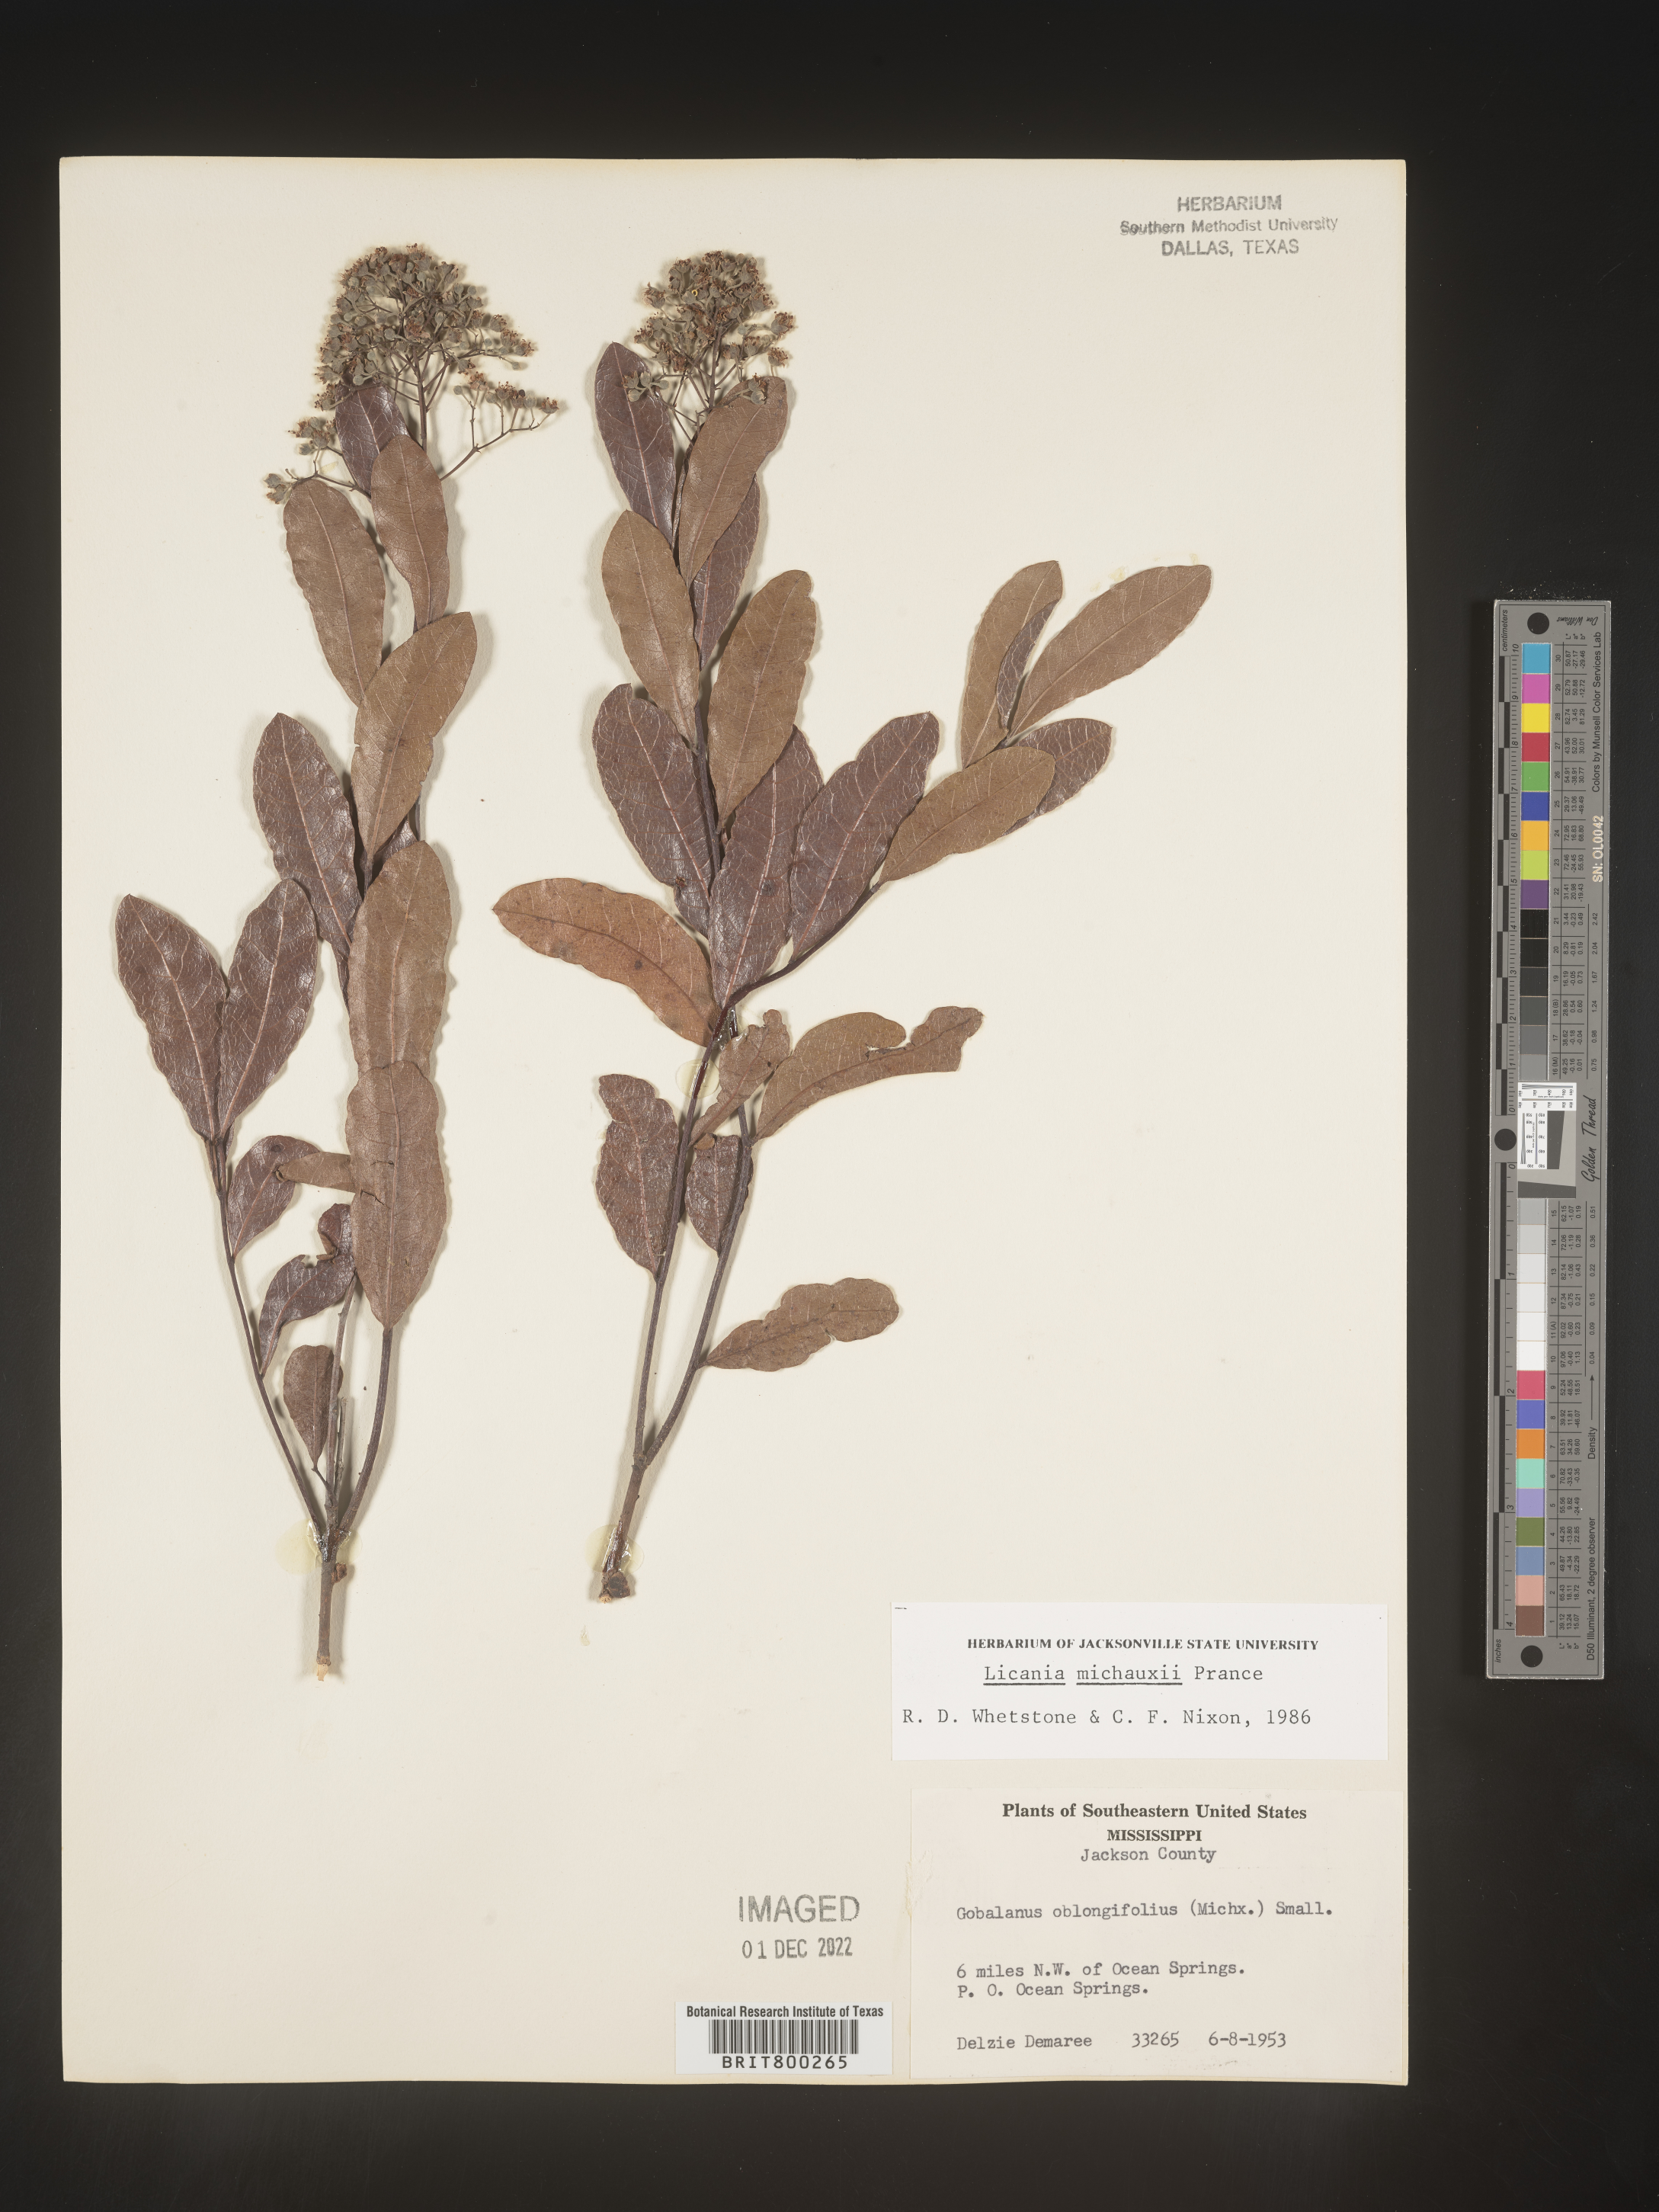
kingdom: Plantae
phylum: Tracheophyta
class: Magnoliopsida
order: Malpighiales
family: Chrysobalanaceae
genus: Geobalanus
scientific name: Geobalanus oblongifolius
